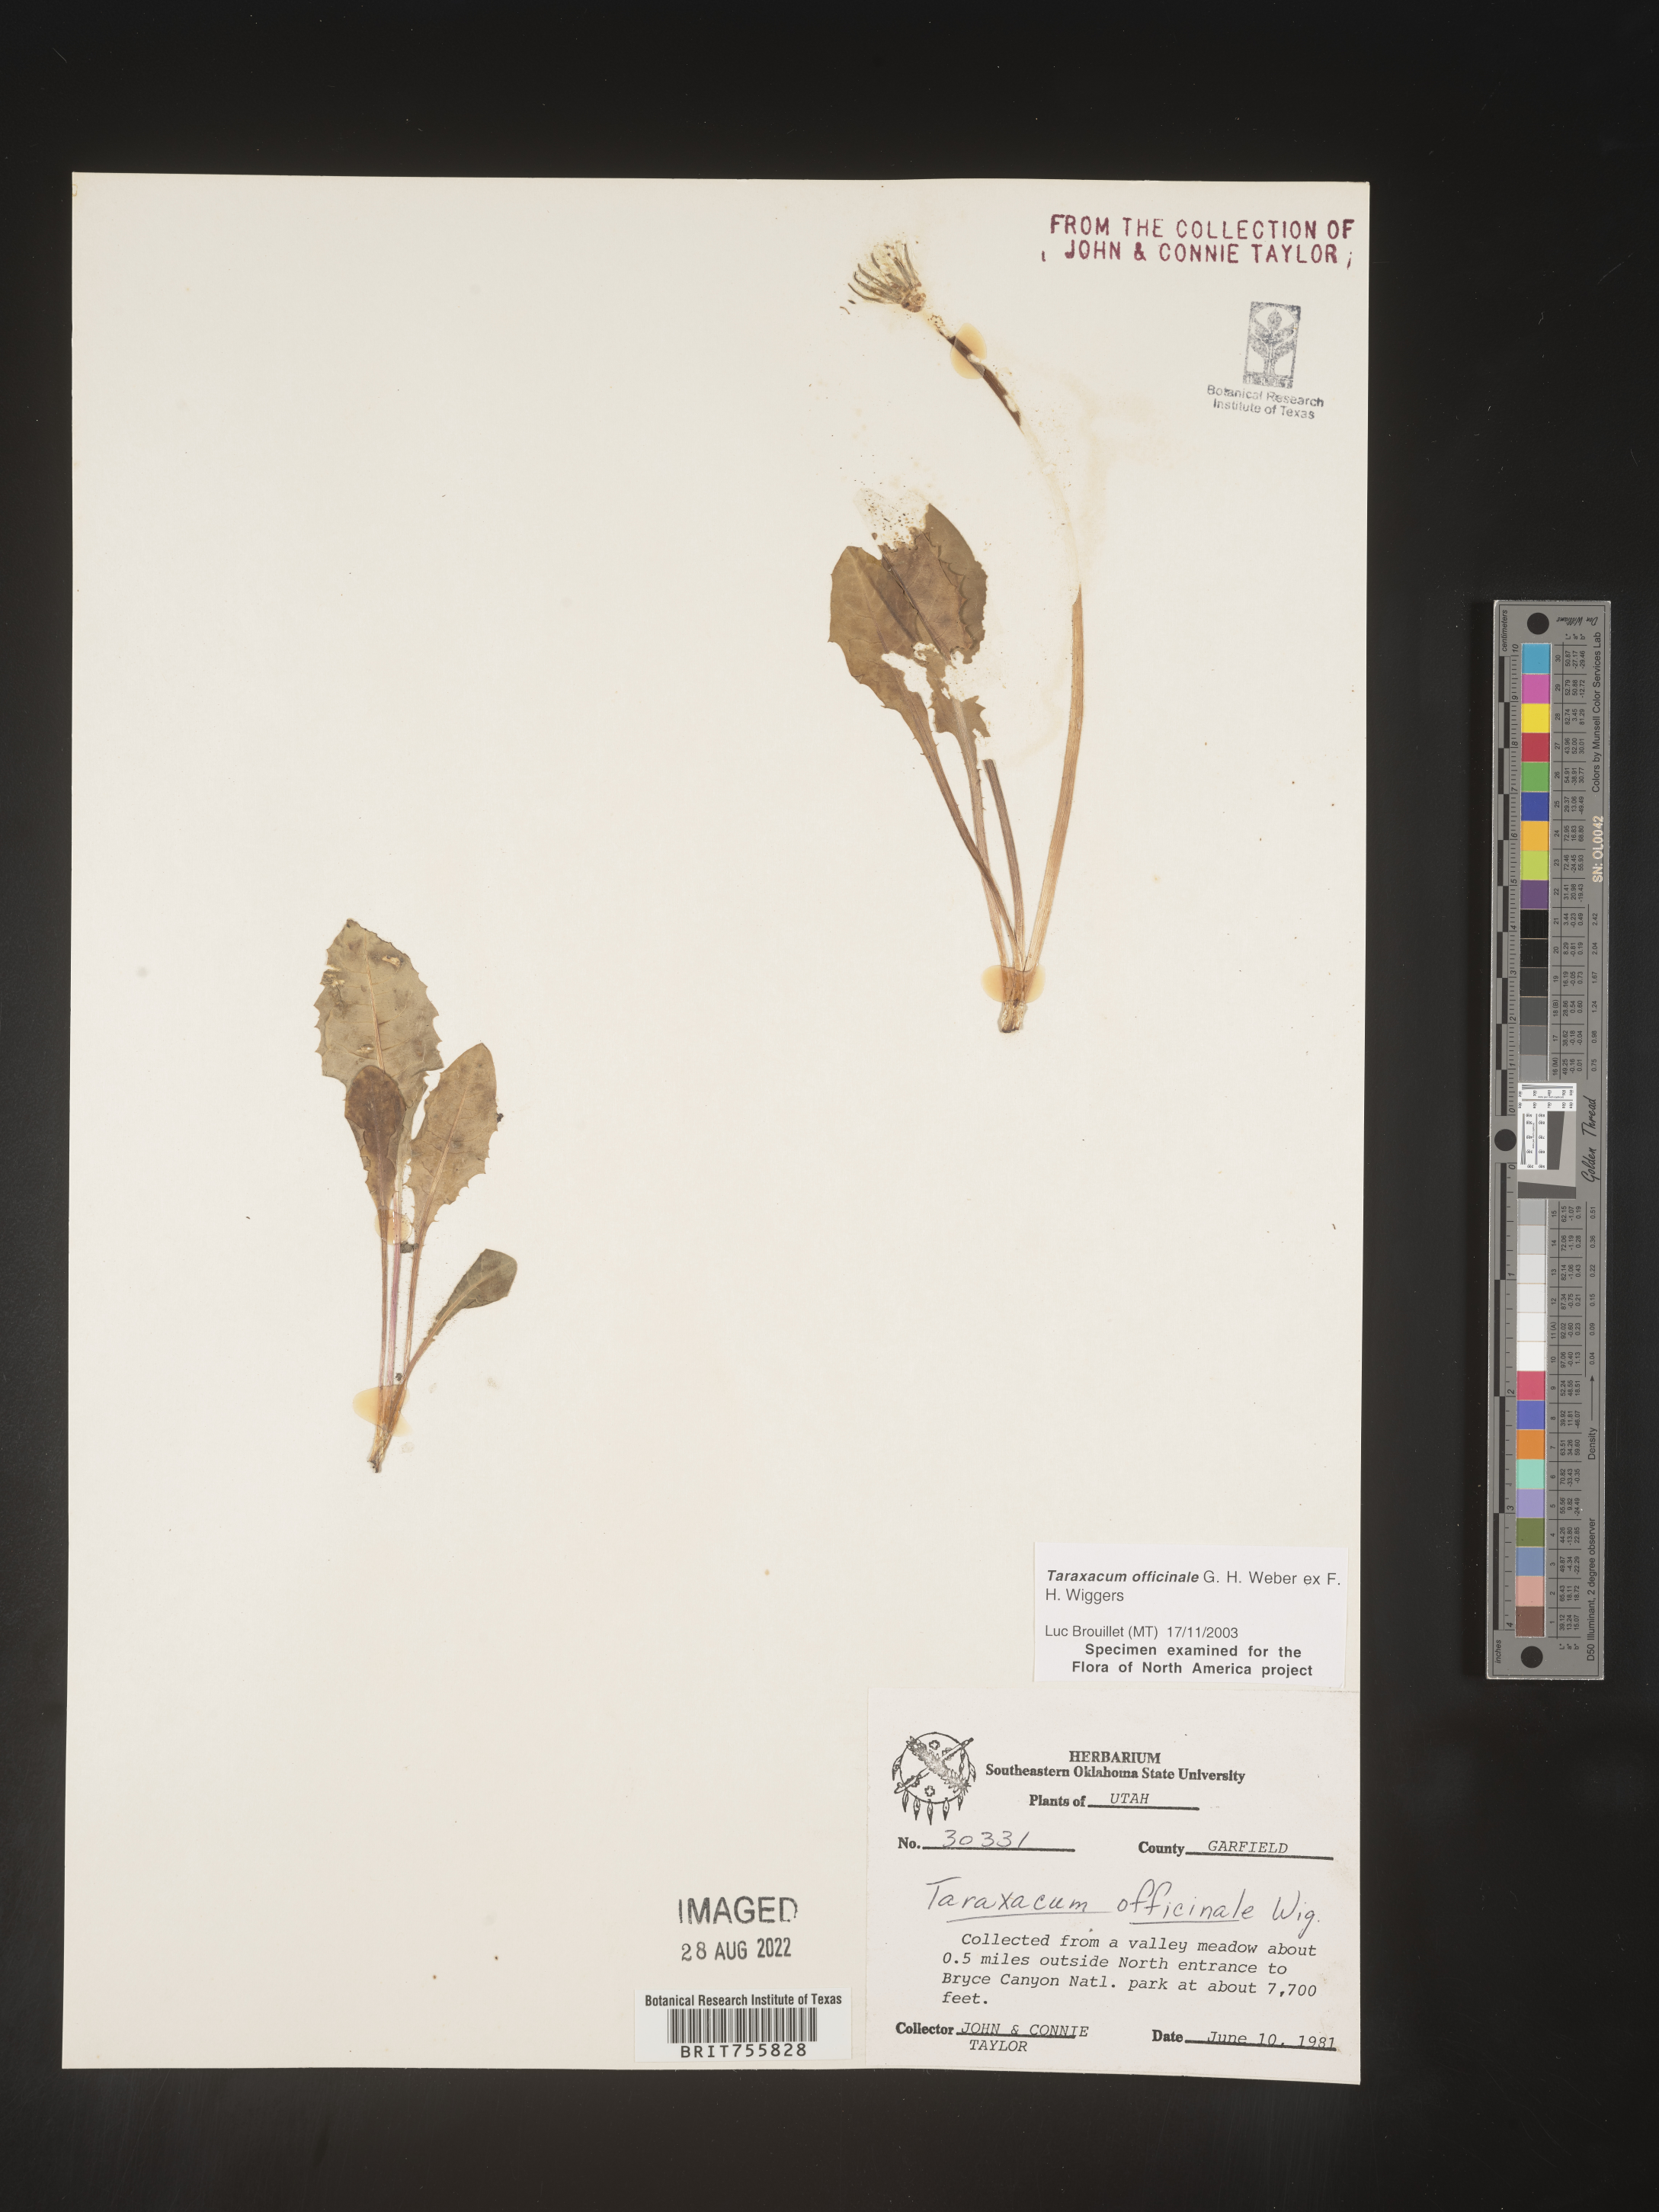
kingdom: Plantae
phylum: Tracheophyta
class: Magnoliopsida
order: Asterales
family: Asteraceae
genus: Taraxacum
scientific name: Taraxacum officinale
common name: Common dandelion
